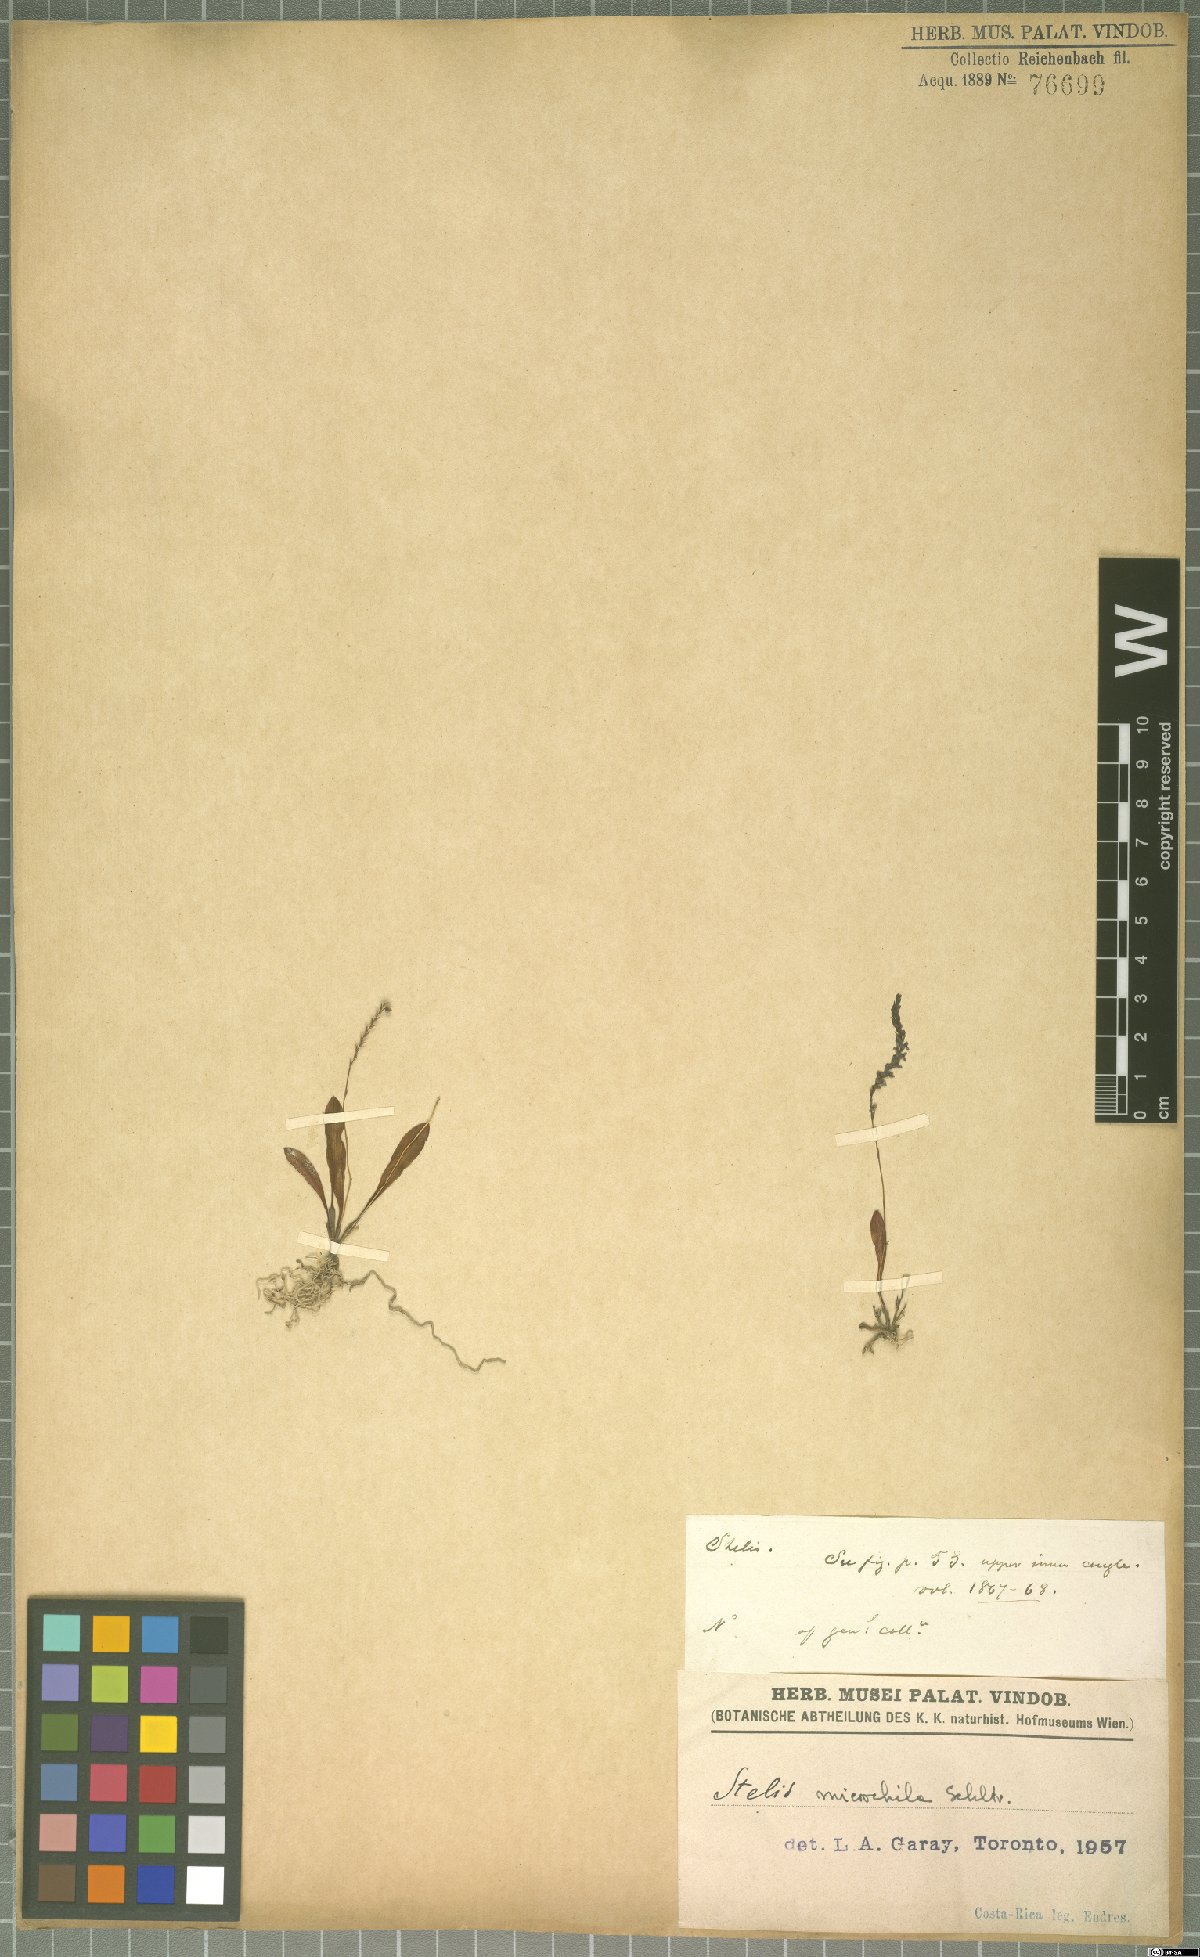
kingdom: Plantae
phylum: Tracheophyta
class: Liliopsida
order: Asparagales
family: Orchidaceae
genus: Stelis
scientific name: Stelis microchila
